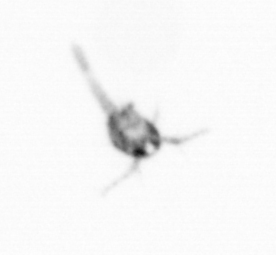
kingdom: Animalia
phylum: Arthropoda
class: Copepoda
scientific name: Copepoda
